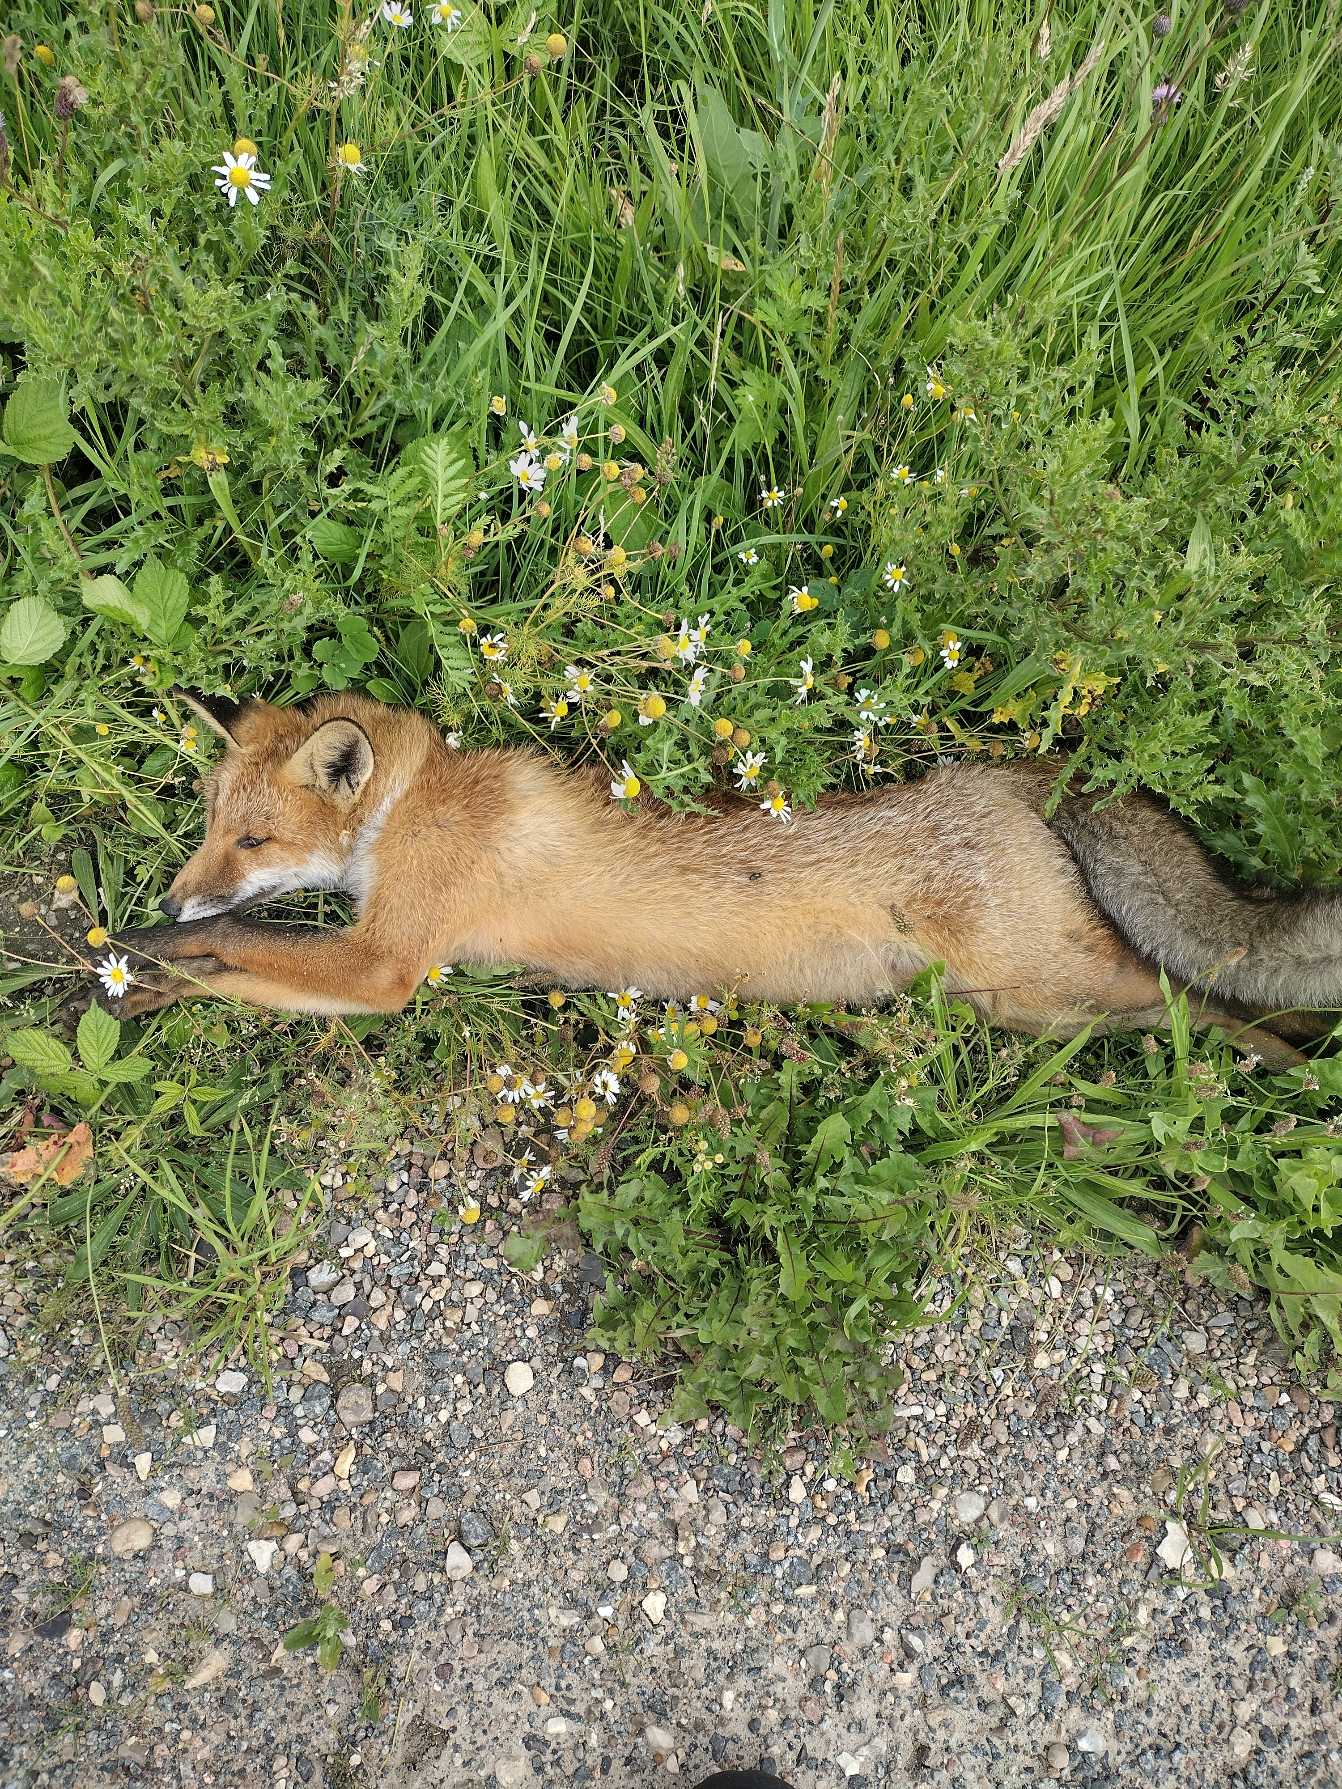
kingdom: Animalia
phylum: Chordata
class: Mammalia
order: Carnivora
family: Canidae
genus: Vulpes
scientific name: Vulpes vulpes
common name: Ræv
